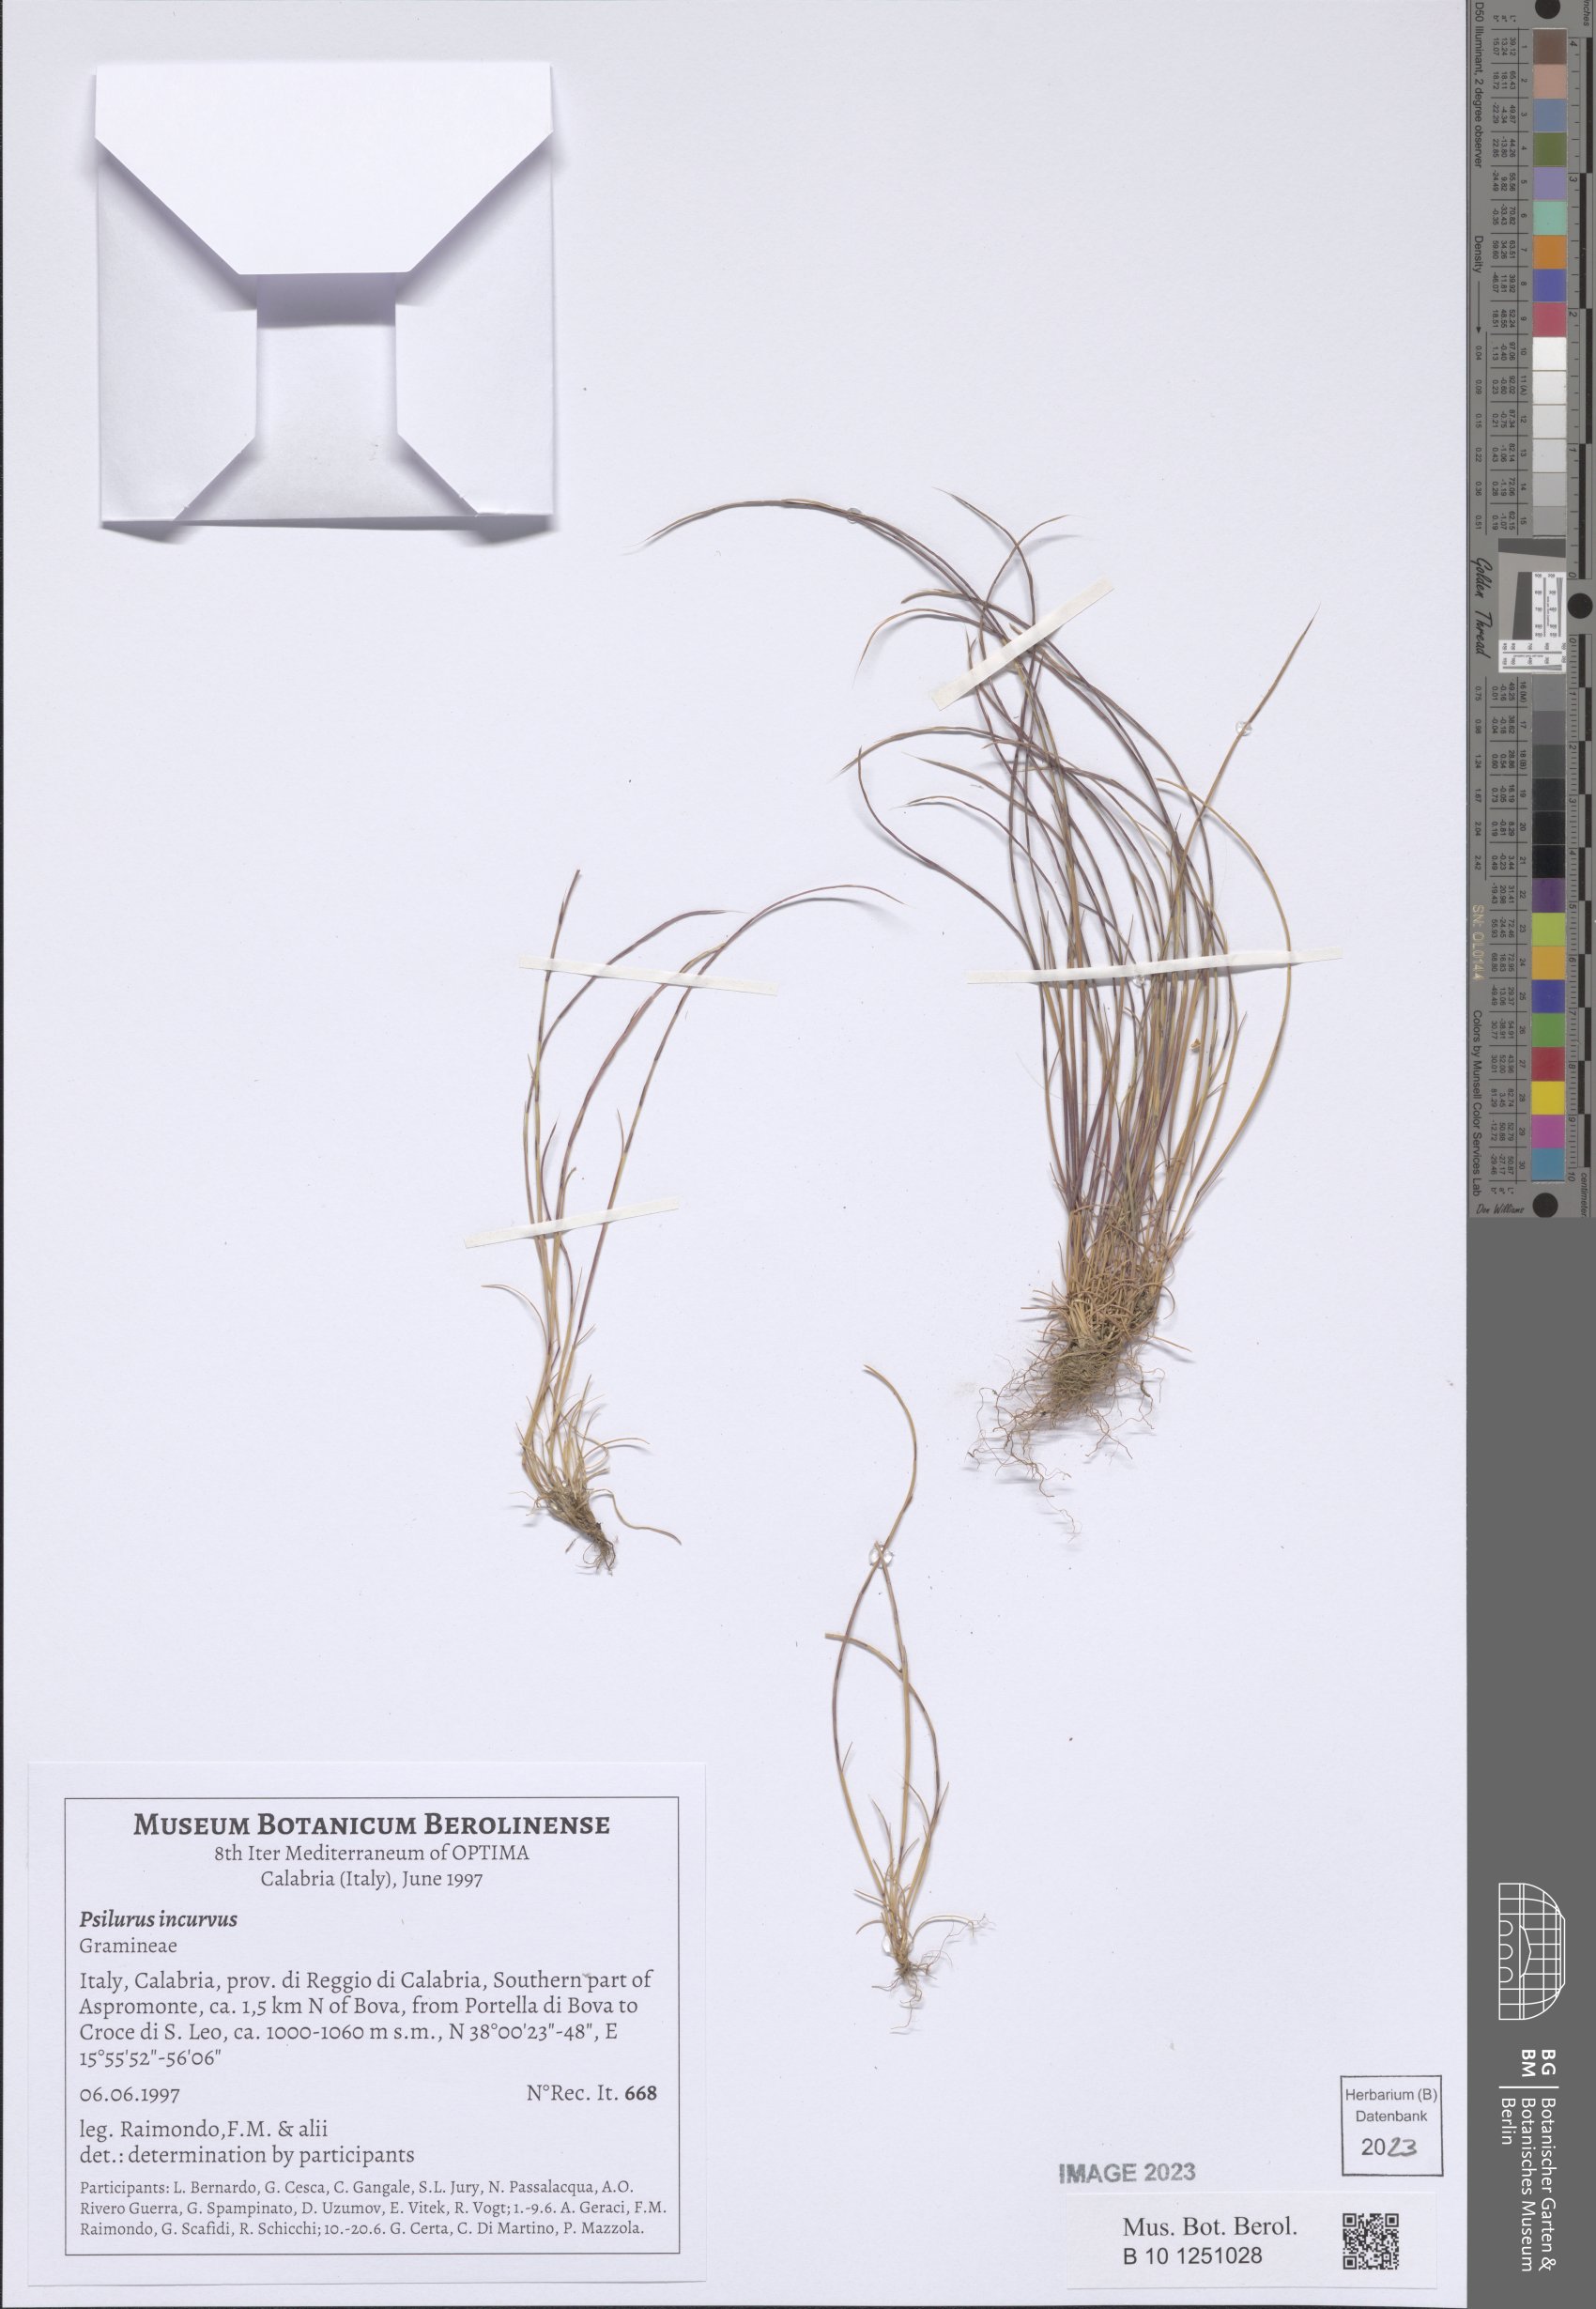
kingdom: Plantae
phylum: Tracheophyta
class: Liliopsida
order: Poales
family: Poaceae
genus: Festuca
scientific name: Festuca incurva
